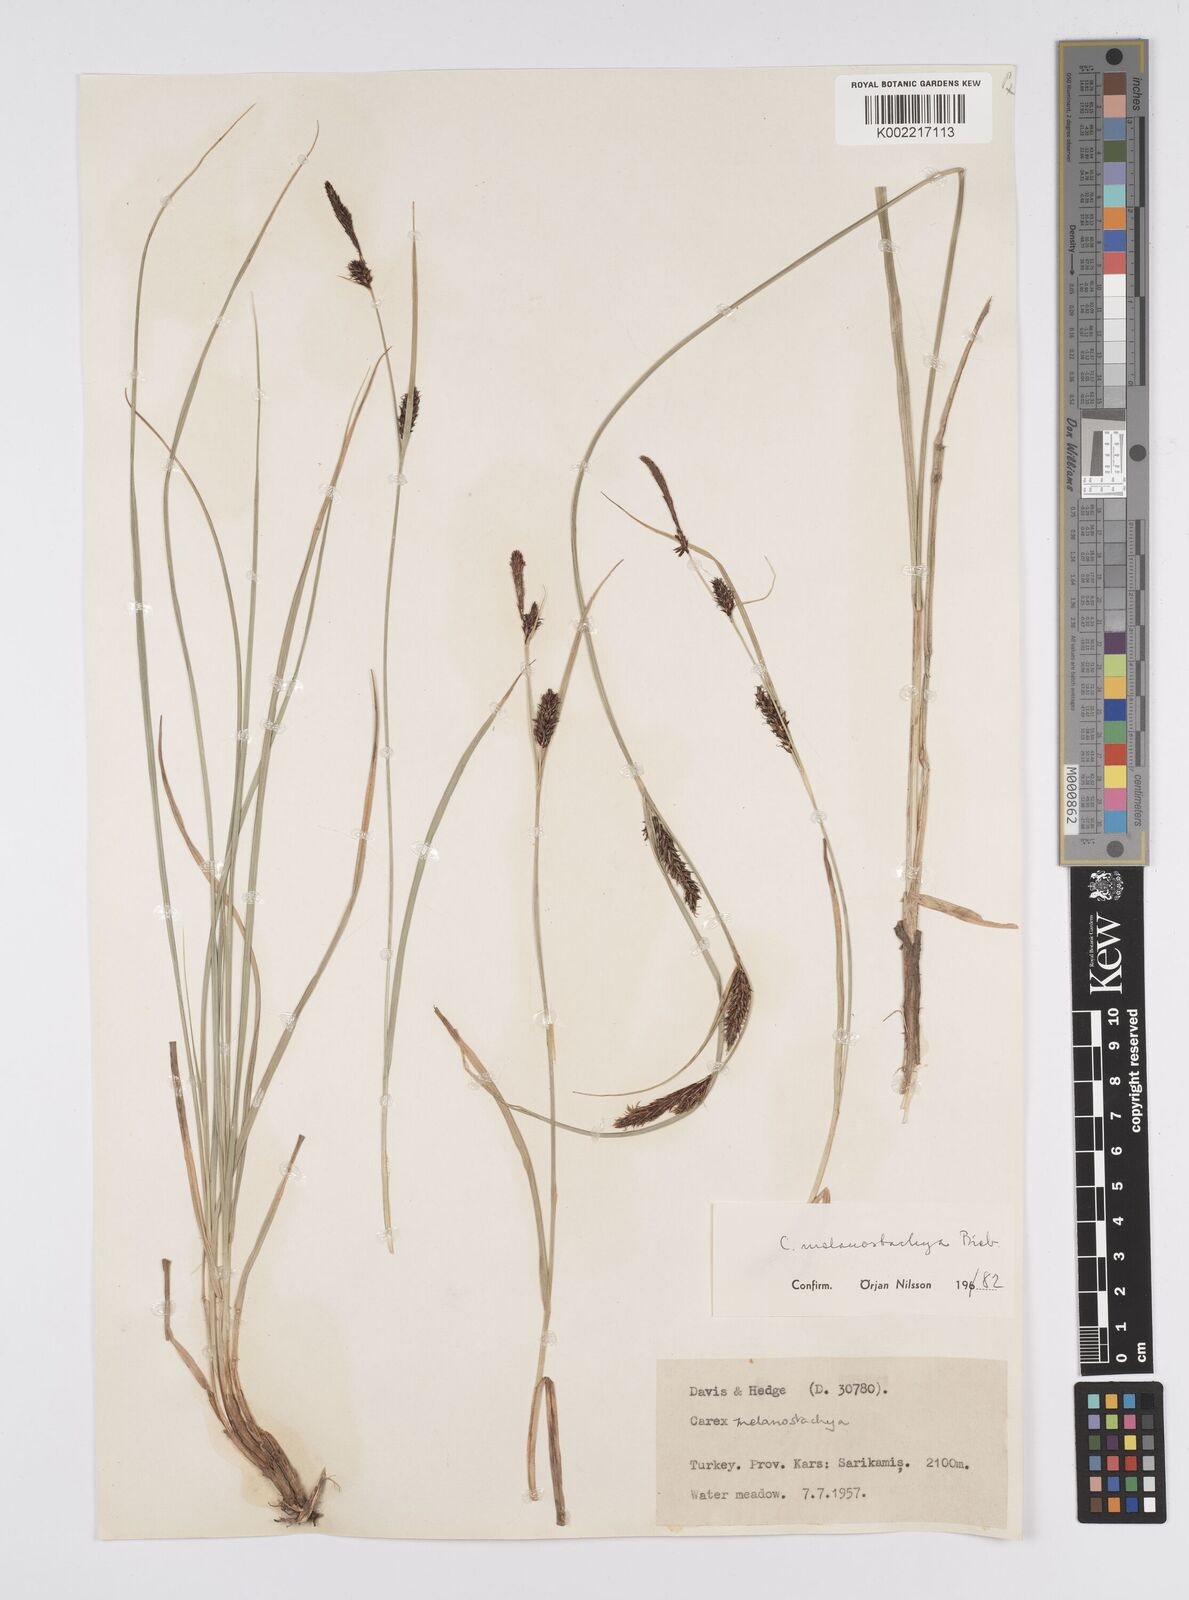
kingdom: Plantae
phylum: Tracheophyta
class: Liliopsida
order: Poales
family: Cyperaceae
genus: Carex
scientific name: Carex melanostachya
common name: Black-spiked sedge
